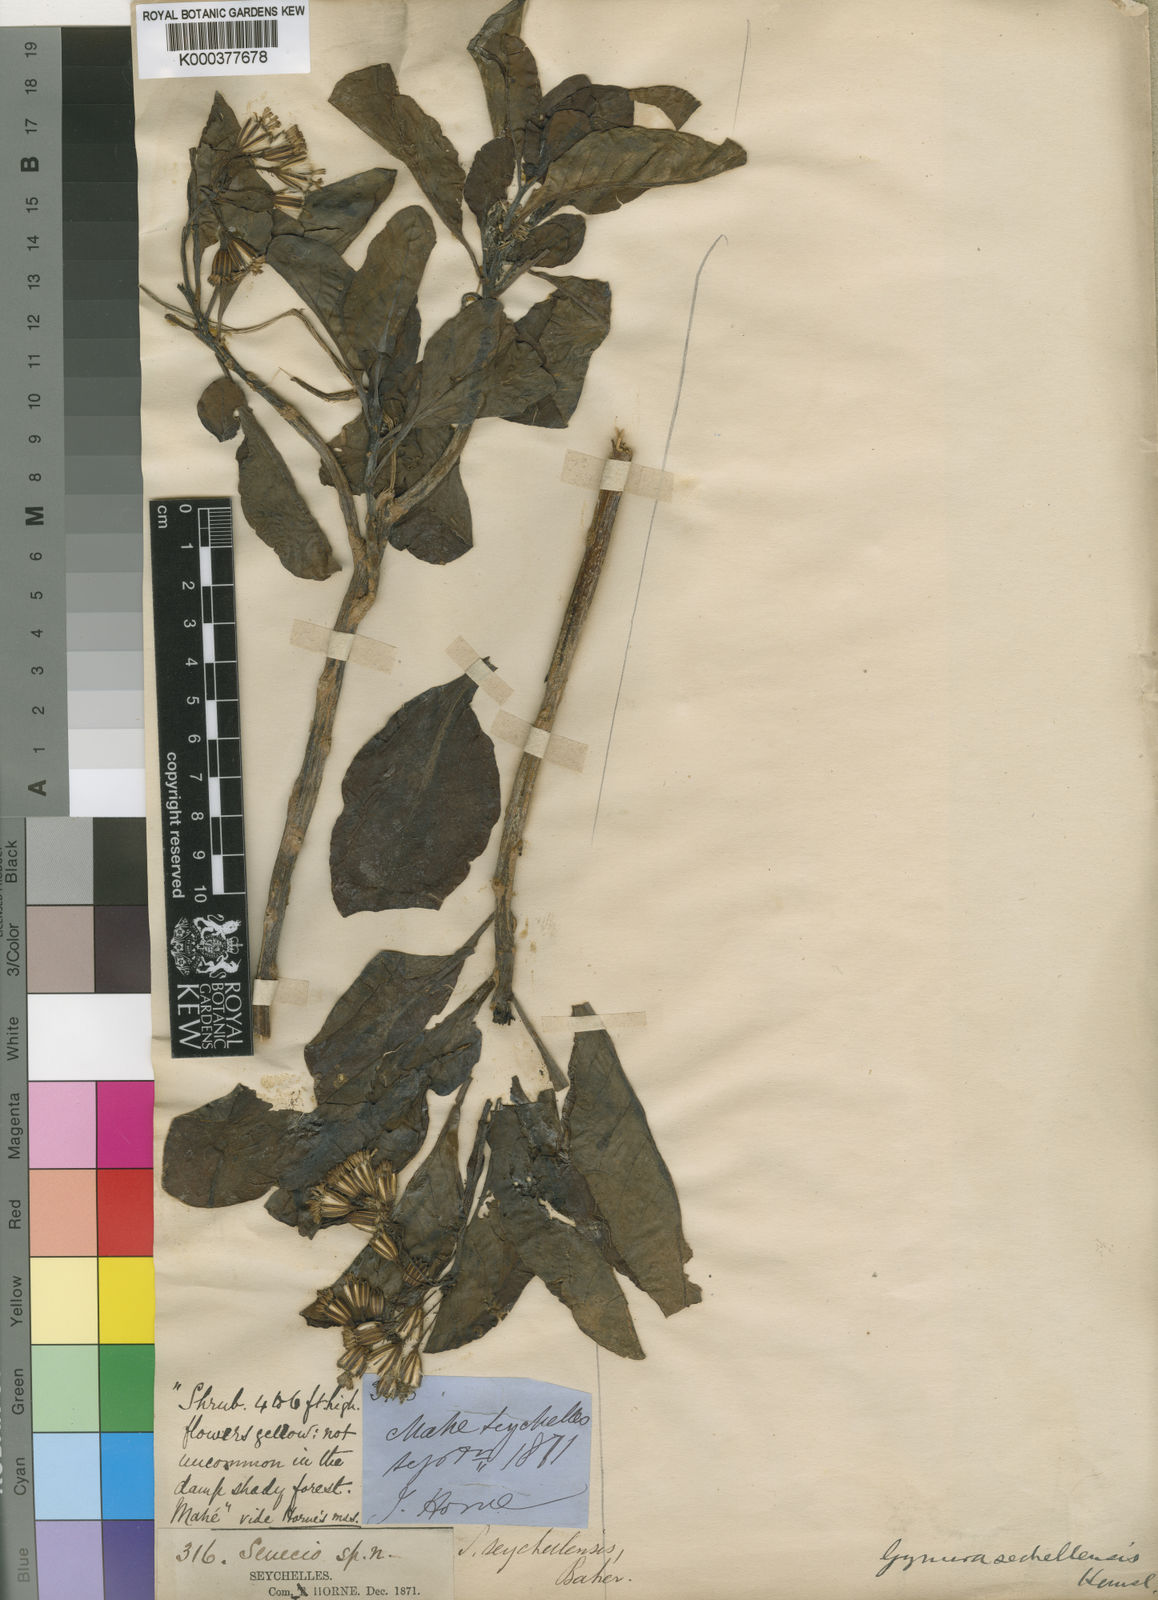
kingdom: Plantae
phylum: Tracheophyta
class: Magnoliopsida
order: Asterales
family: Asteraceae
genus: Gynura
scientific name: Gynura sechellensis
